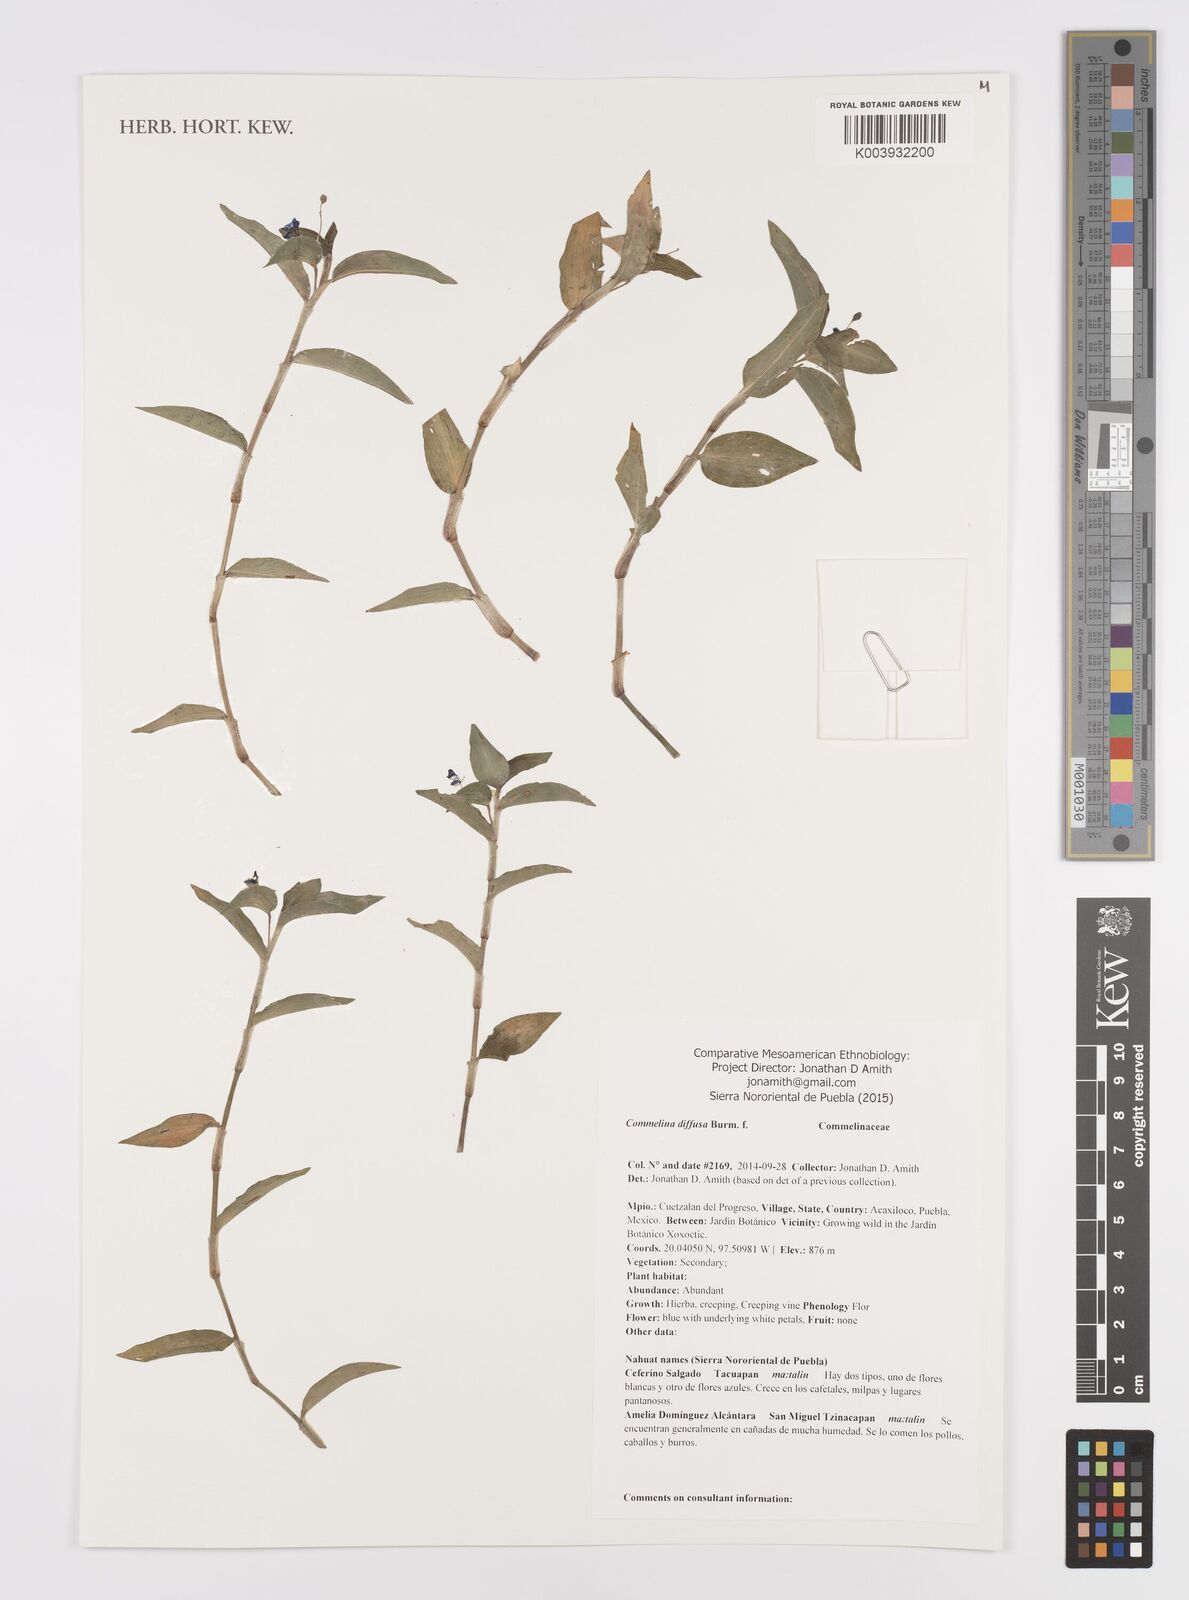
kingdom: Plantae
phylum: Tracheophyta
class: Liliopsida
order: Commelinales
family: Commelinaceae
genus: Commelina
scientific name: Commelina diffusa
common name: Climbing dayflower
